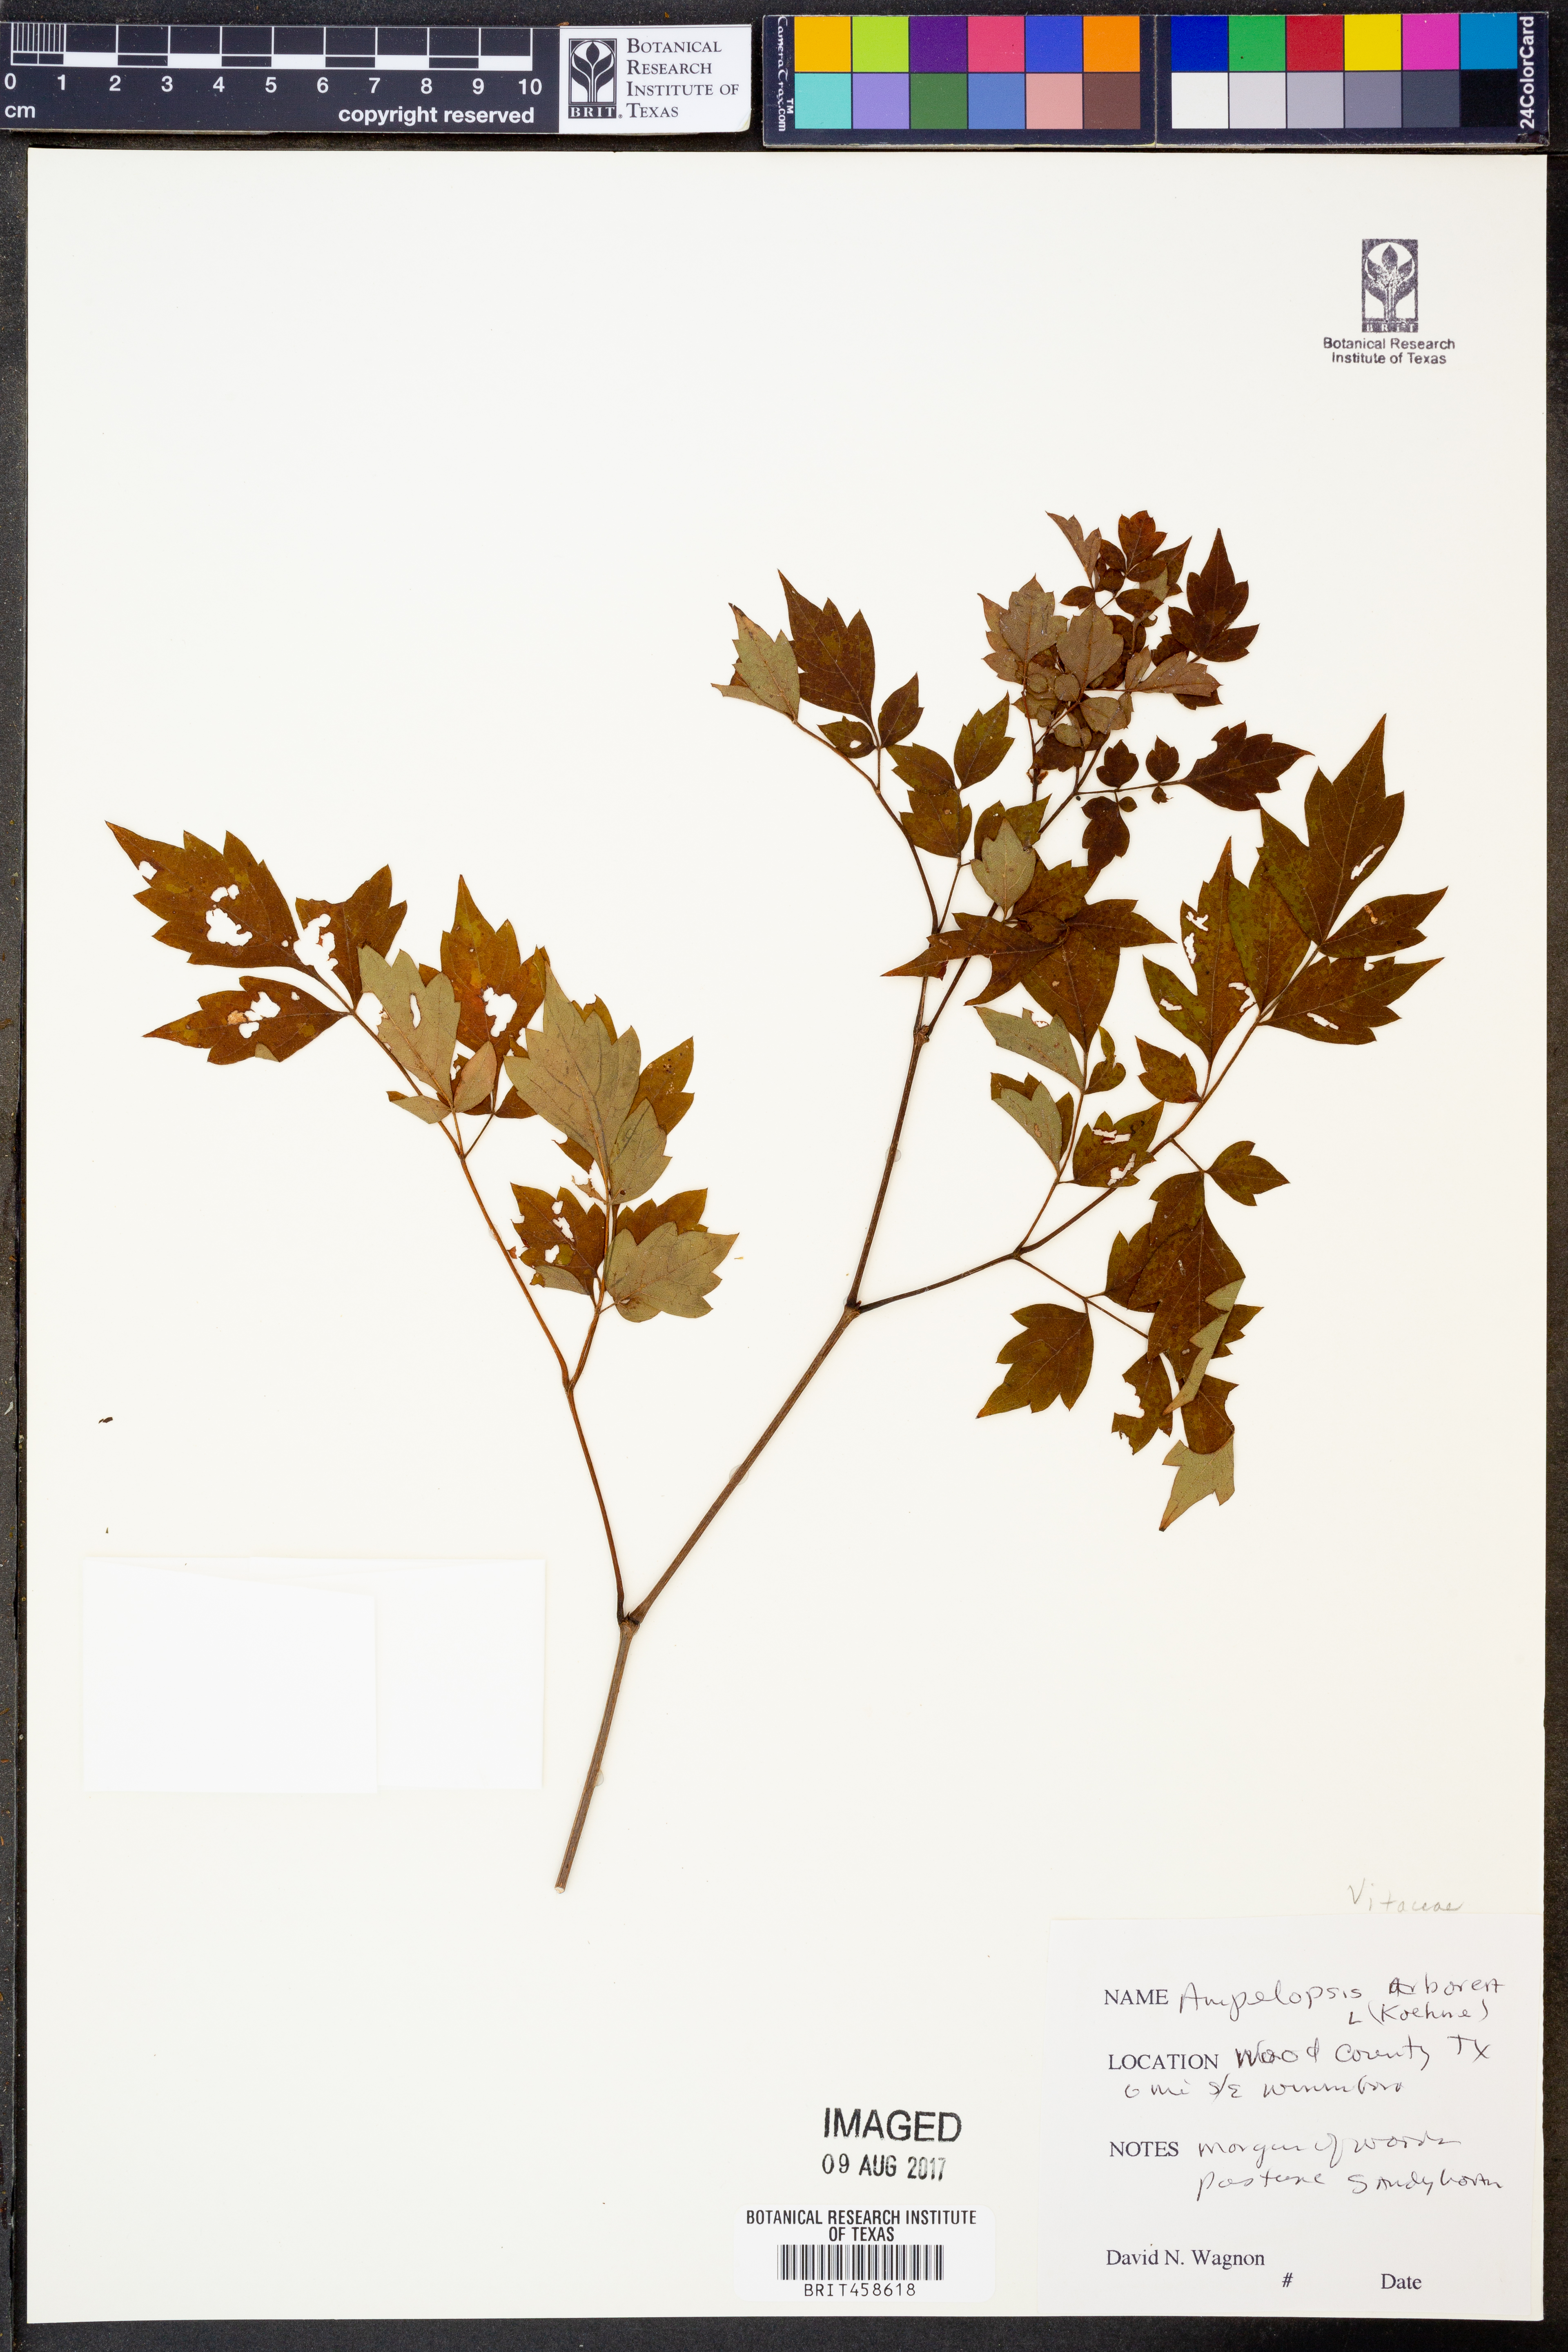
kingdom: Plantae
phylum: Tracheophyta
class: Magnoliopsida
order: Vitales
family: Vitaceae
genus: Nekemias
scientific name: Nekemias arborea
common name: Peppervine
